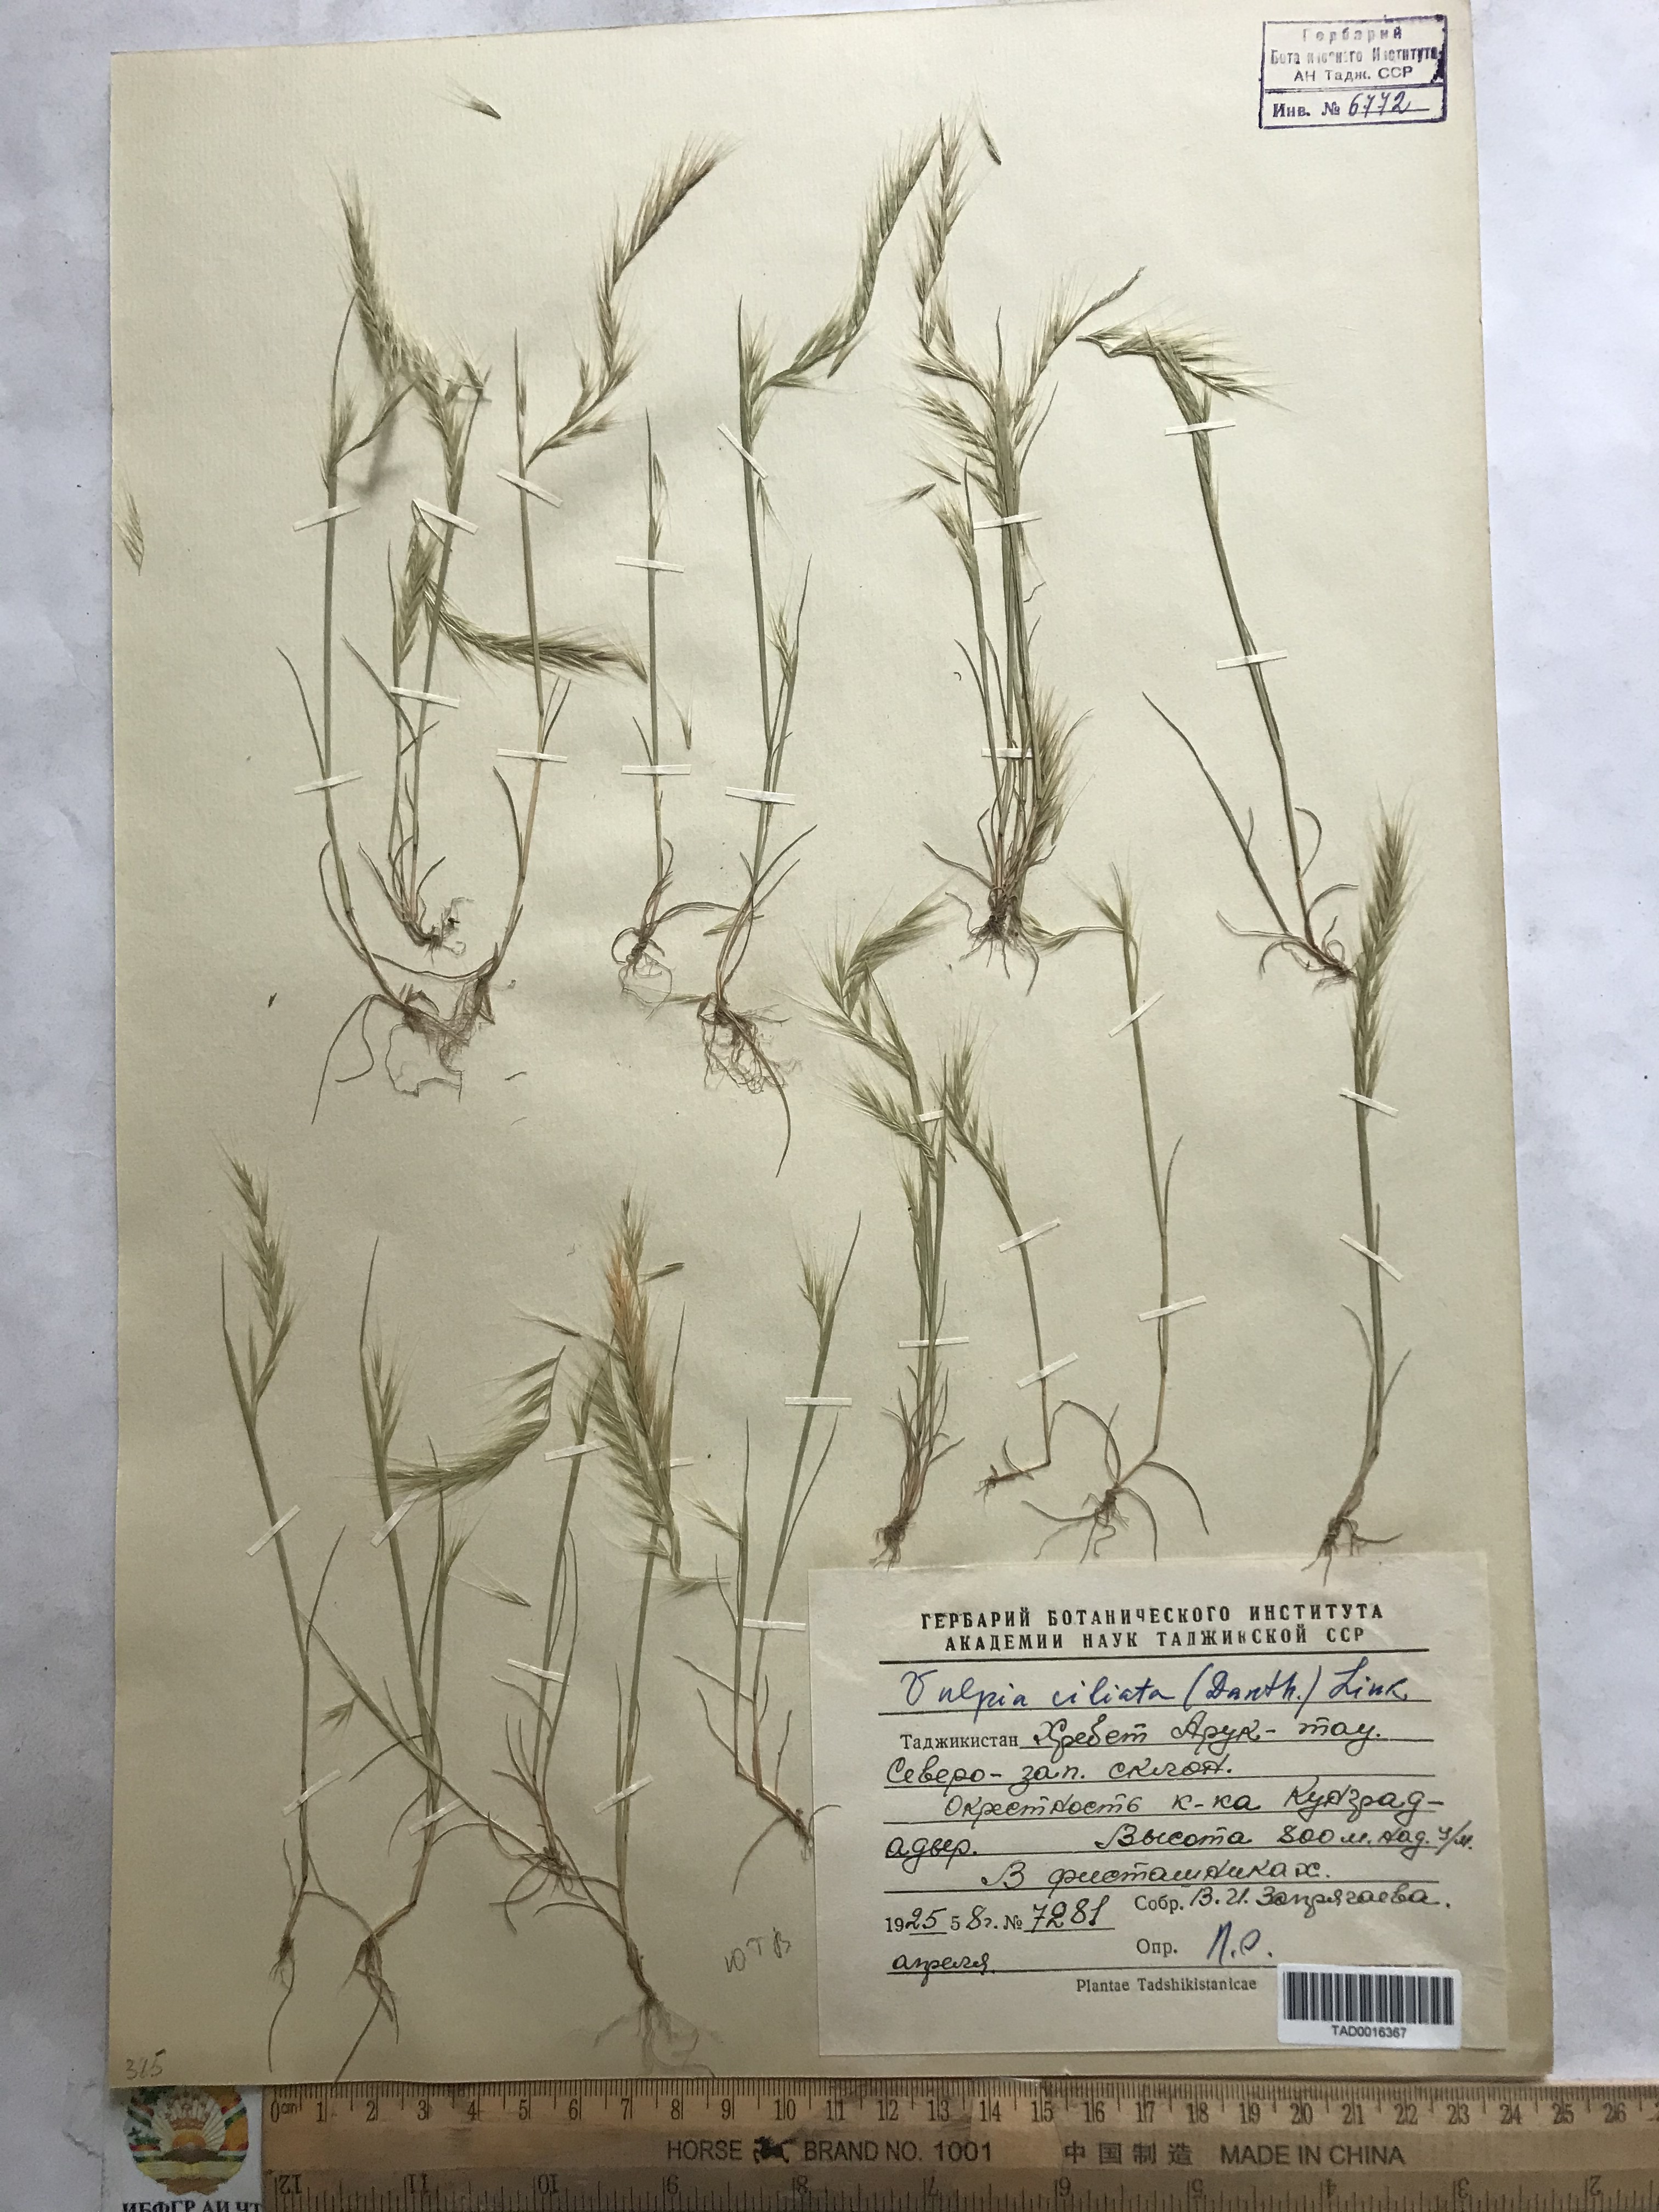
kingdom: Plantae
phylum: Tracheophyta
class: Liliopsida
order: Poales
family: Poaceae
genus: Festuca
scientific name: Festuca ambigua
